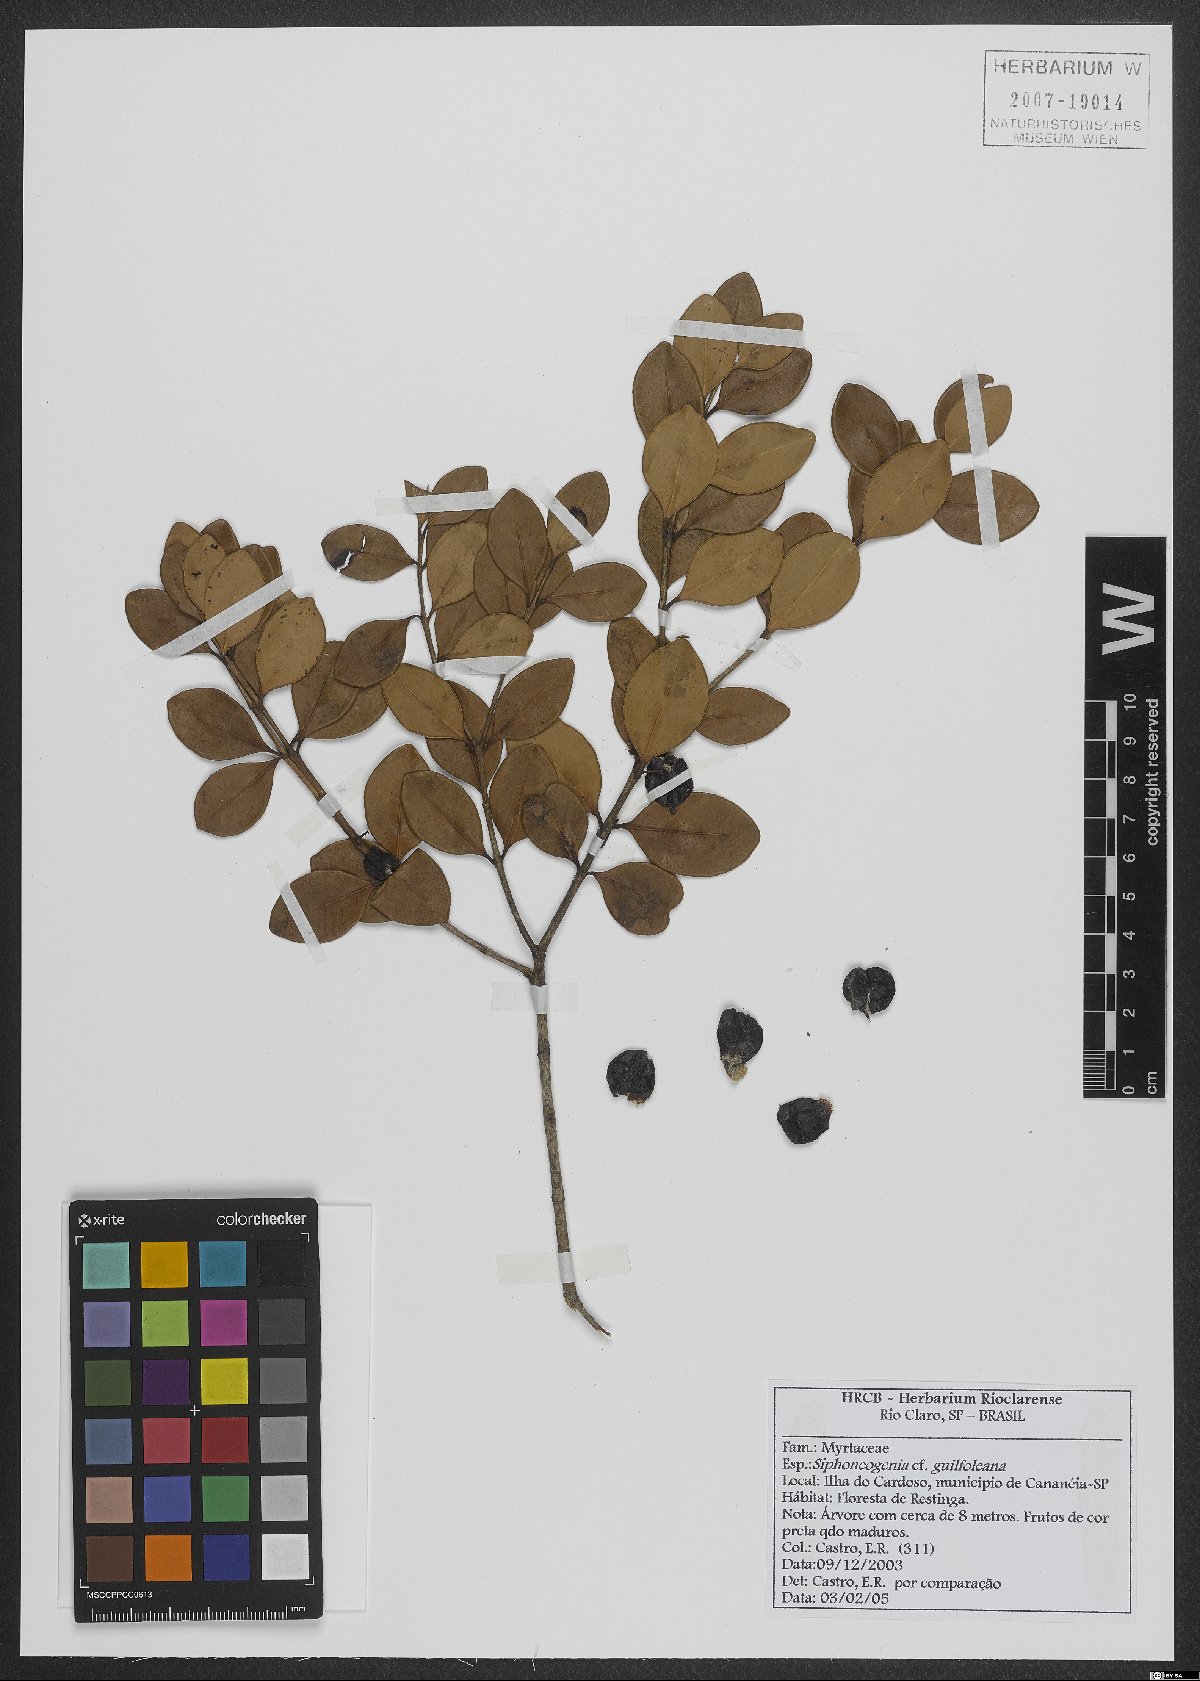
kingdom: Plantae
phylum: Tracheophyta
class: Magnoliopsida
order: Myrtales
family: Myrtaceae
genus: Siphoneugena
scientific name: Siphoneugena guilfoyleiana
